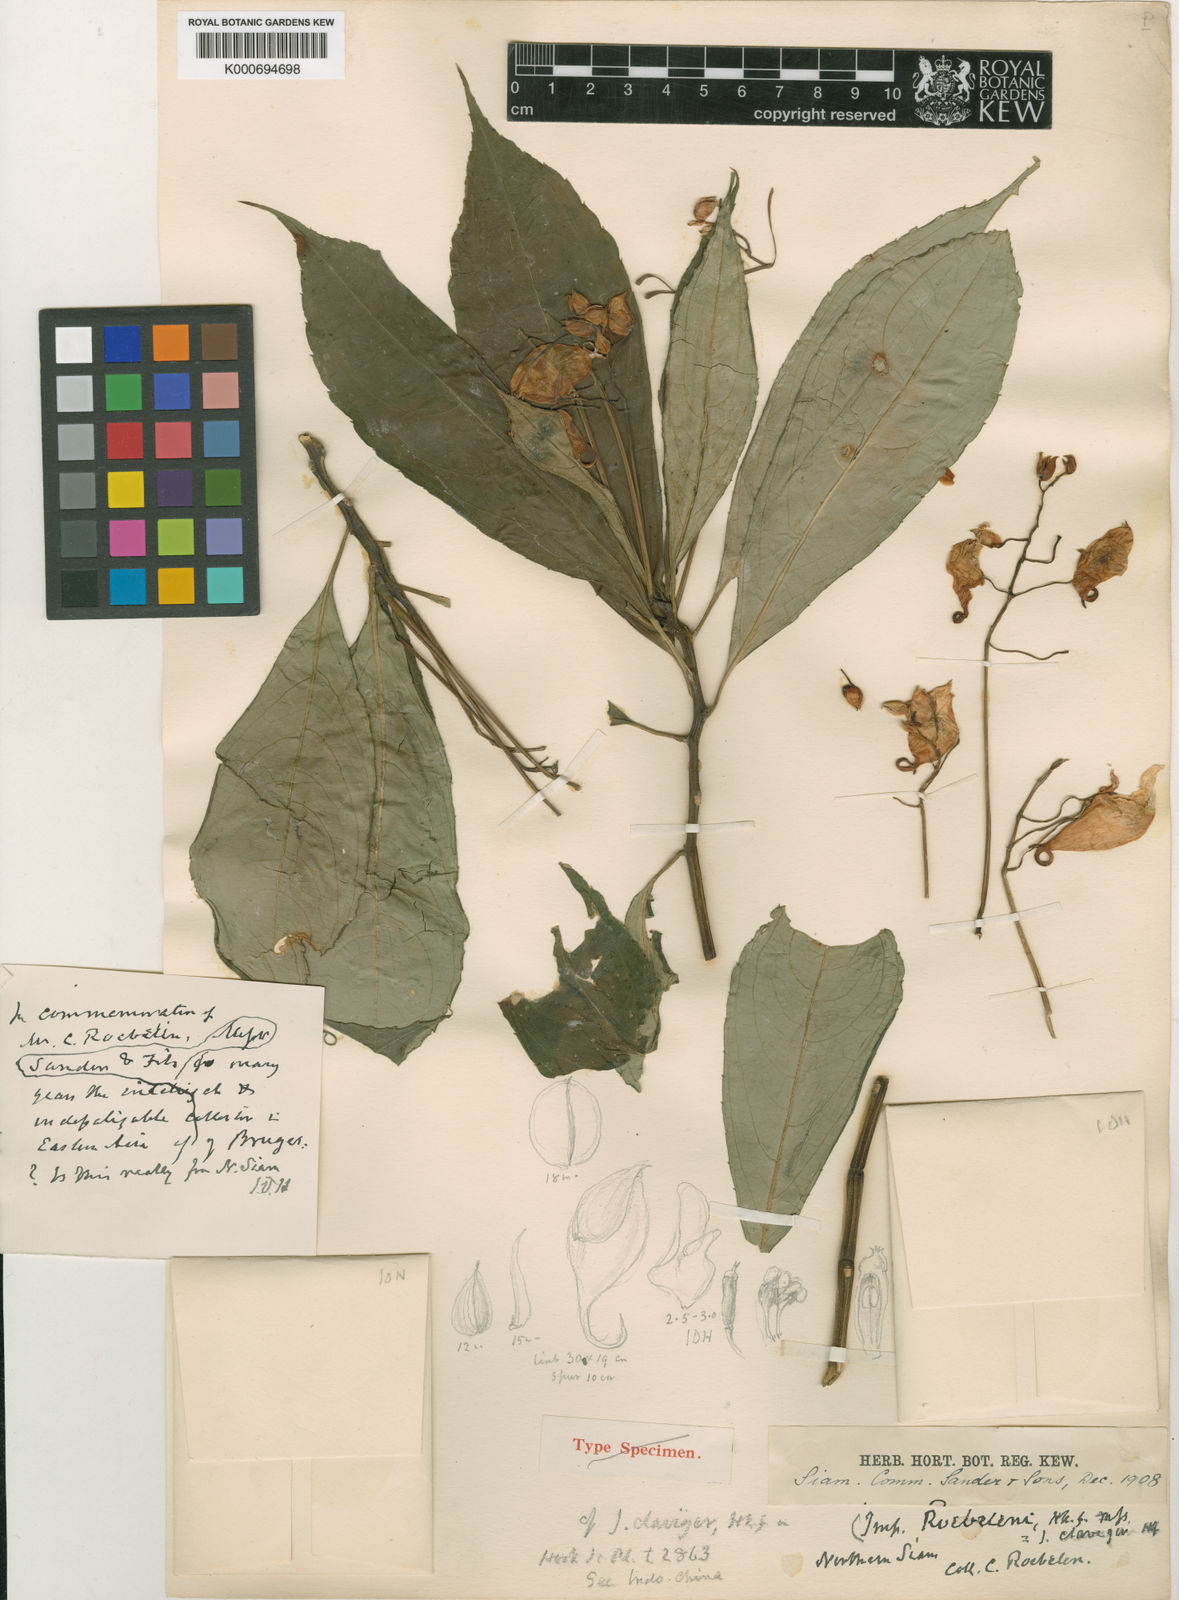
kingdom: Plantae
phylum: Tracheophyta
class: Magnoliopsida
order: Ericales
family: Balsaminaceae
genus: Impatiens
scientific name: Impatiens clavigera
